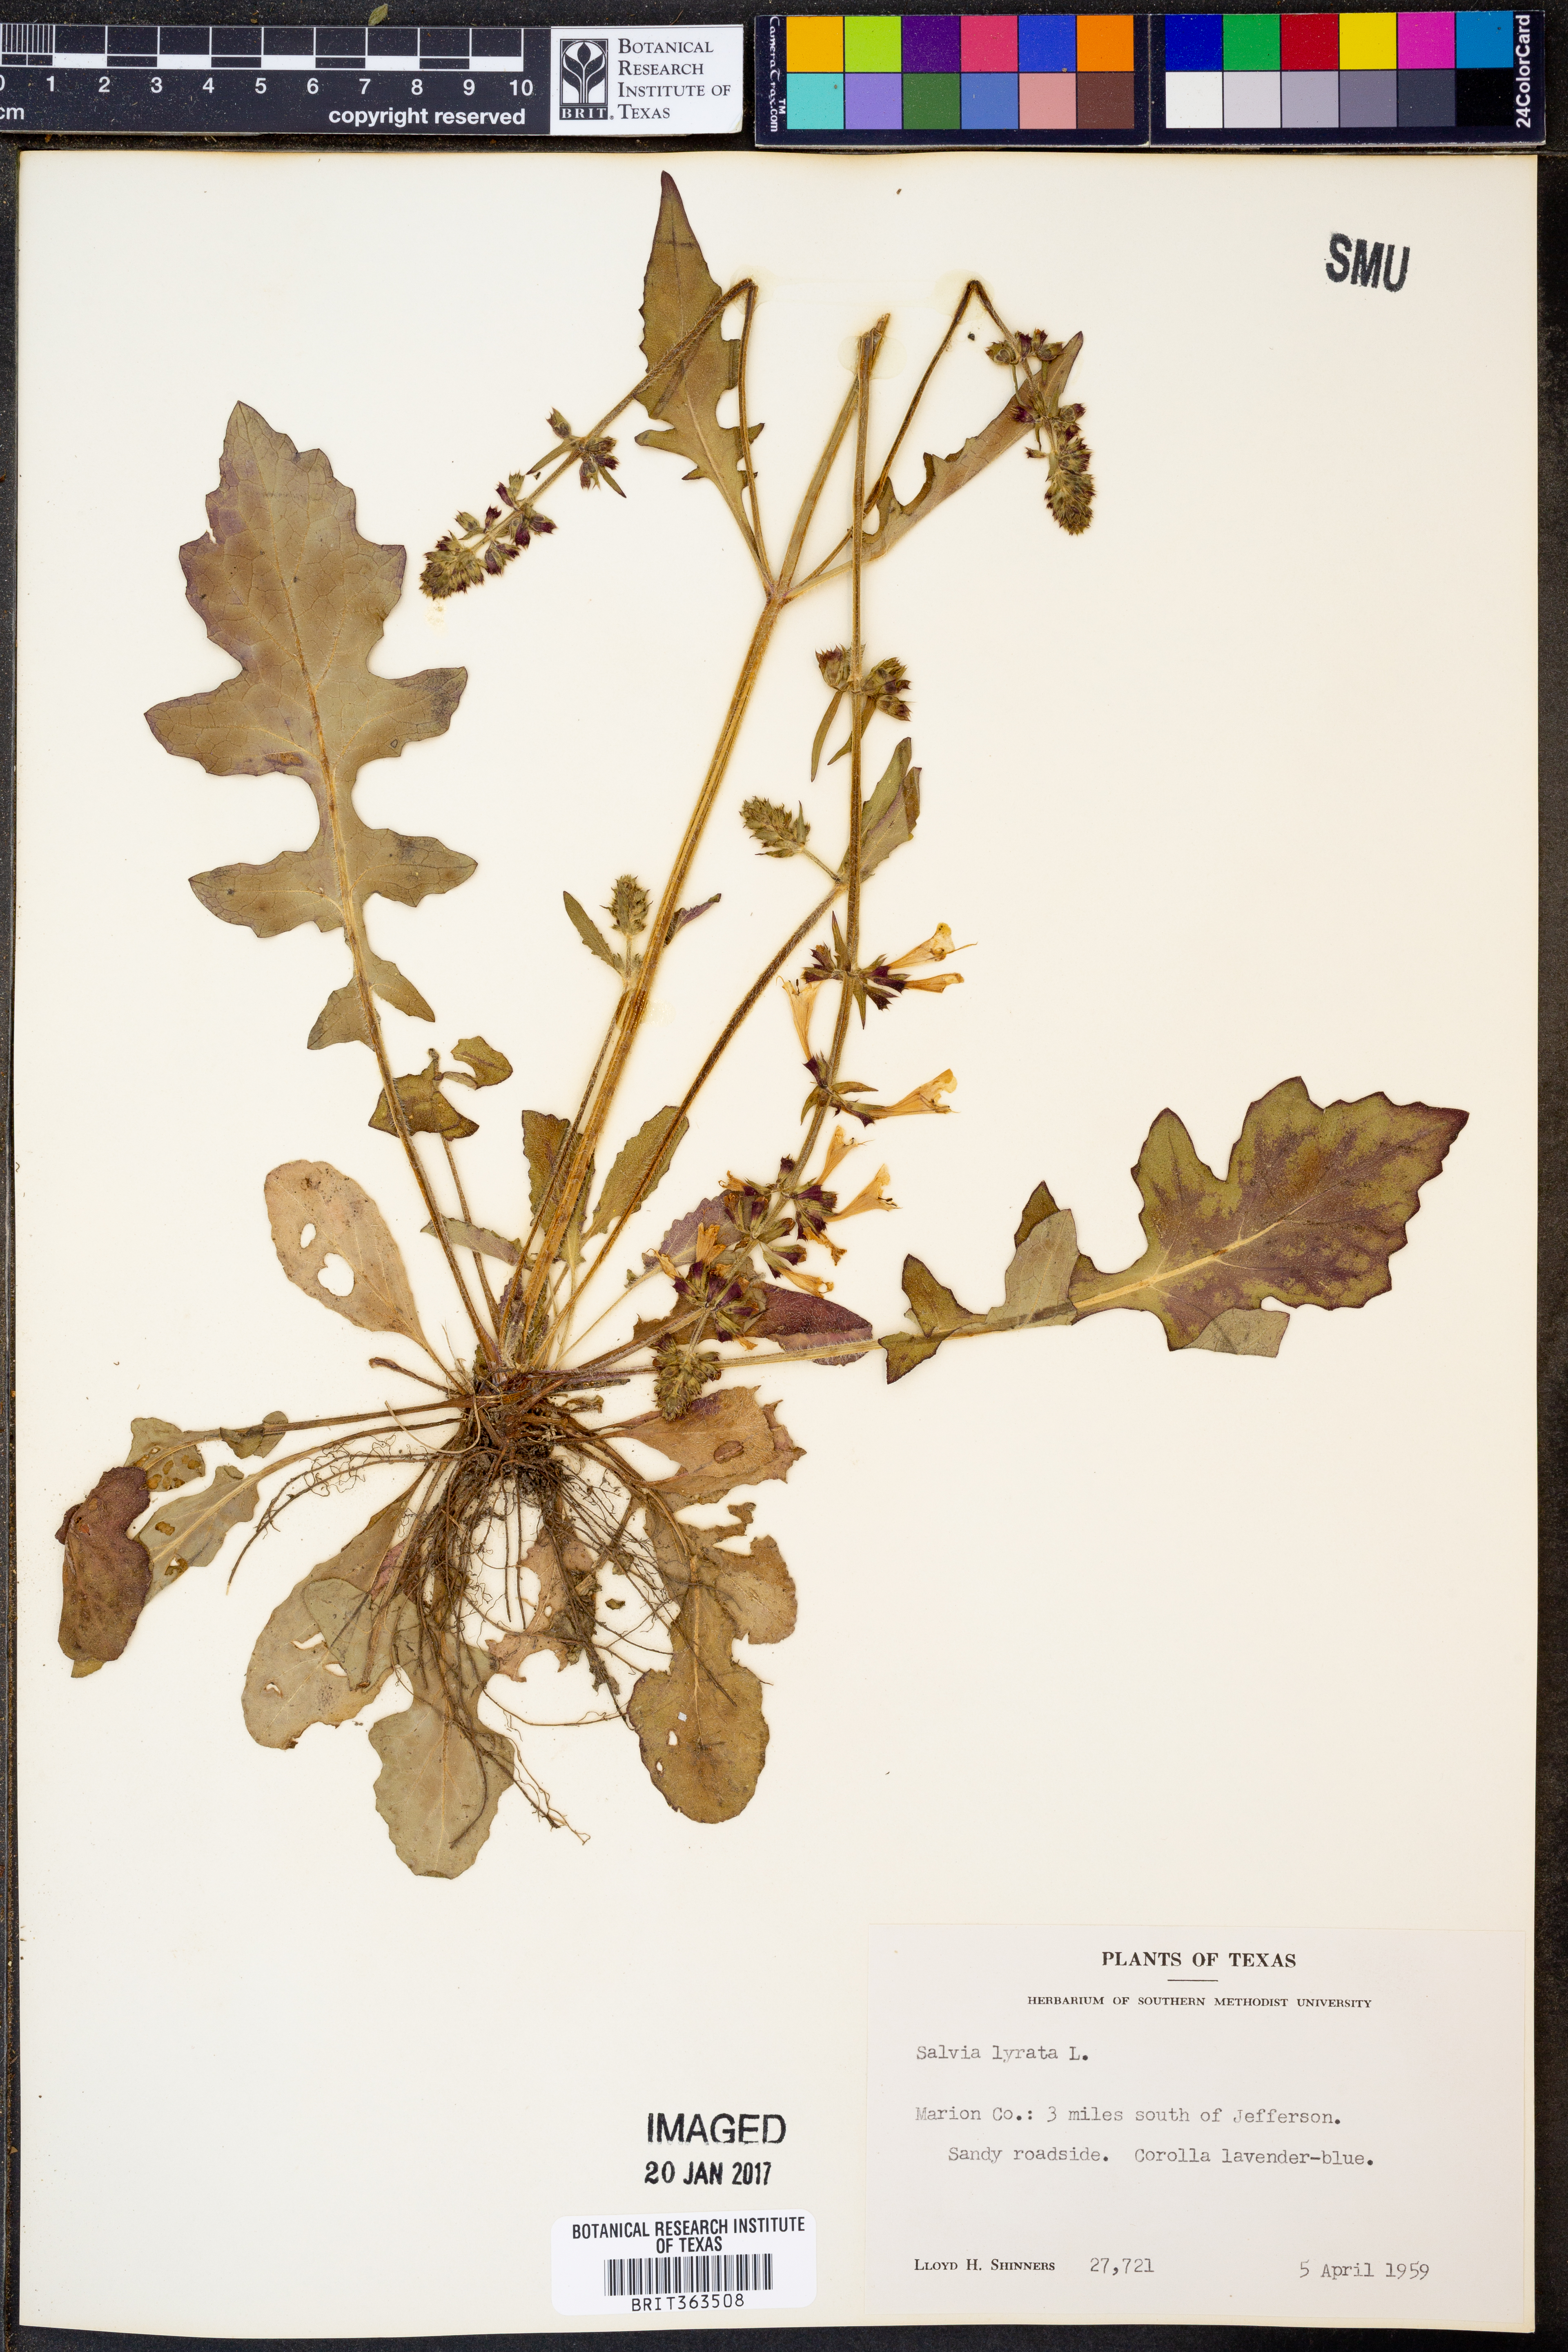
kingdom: Plantae
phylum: Tracheophyta
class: Magnoliopsida
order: Lamiales
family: Lamiaceae
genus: Salvia
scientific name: Salvia lyrata
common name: Cancerweed
